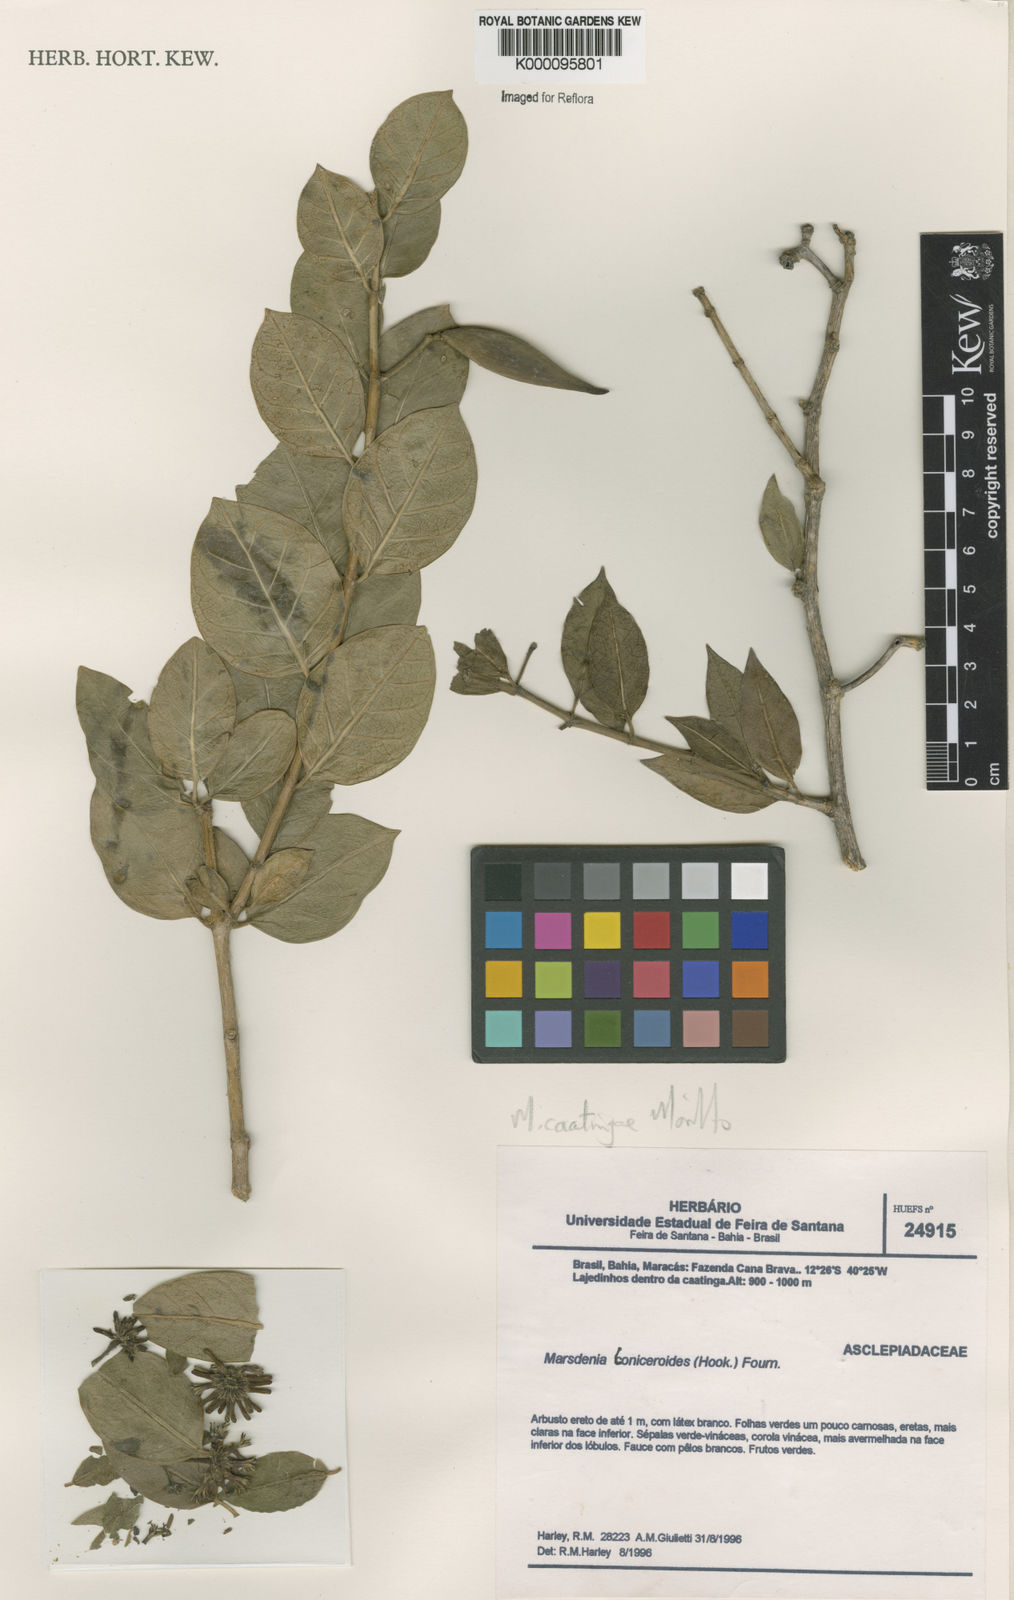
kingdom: Plantae
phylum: Tracheophyta
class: Magnoliopsida
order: Gentianales
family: Apocynaceae
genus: Ruehssia
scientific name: Ruehssia caatingae
